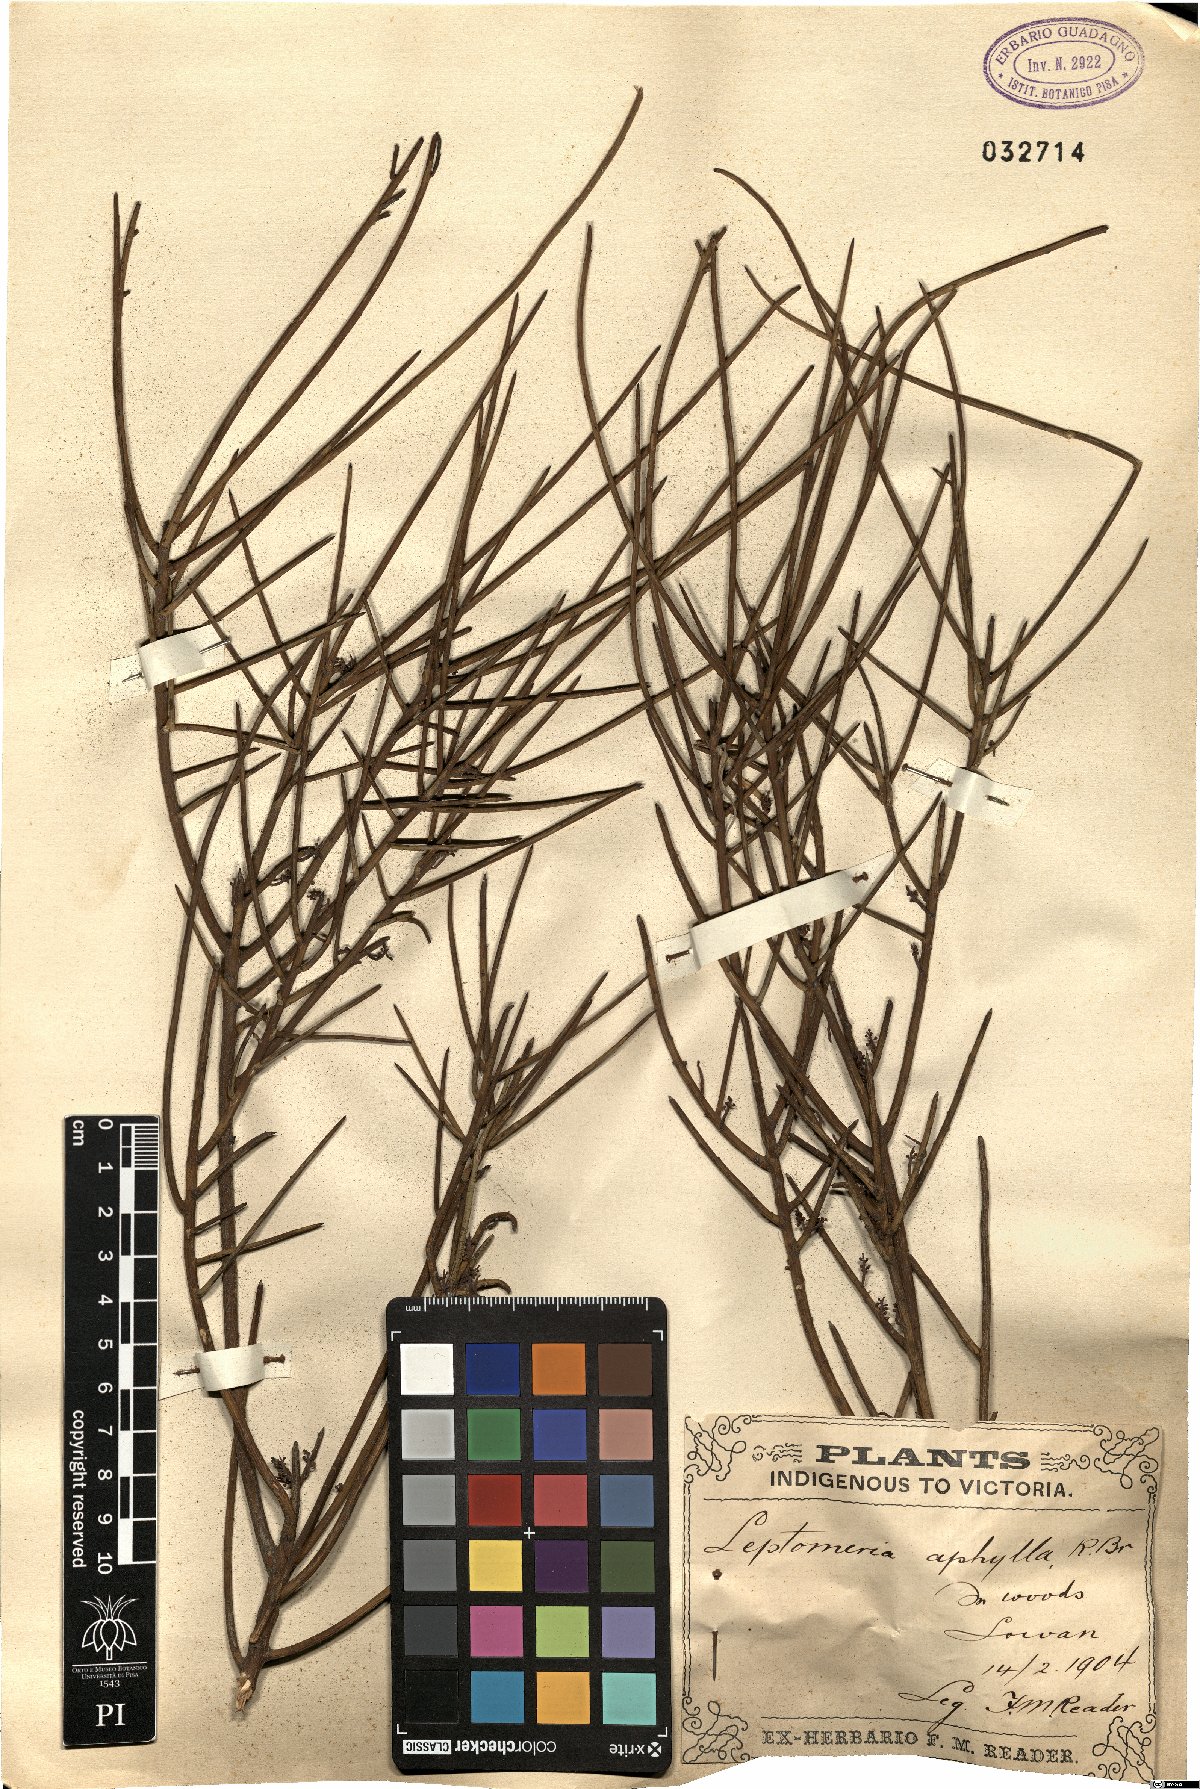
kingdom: Plantae
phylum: Tracheophyta
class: Magnoliopsida
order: Santalales
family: Amphorogynaceae
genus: Leptomeria
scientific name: Leptomeria aphylla
